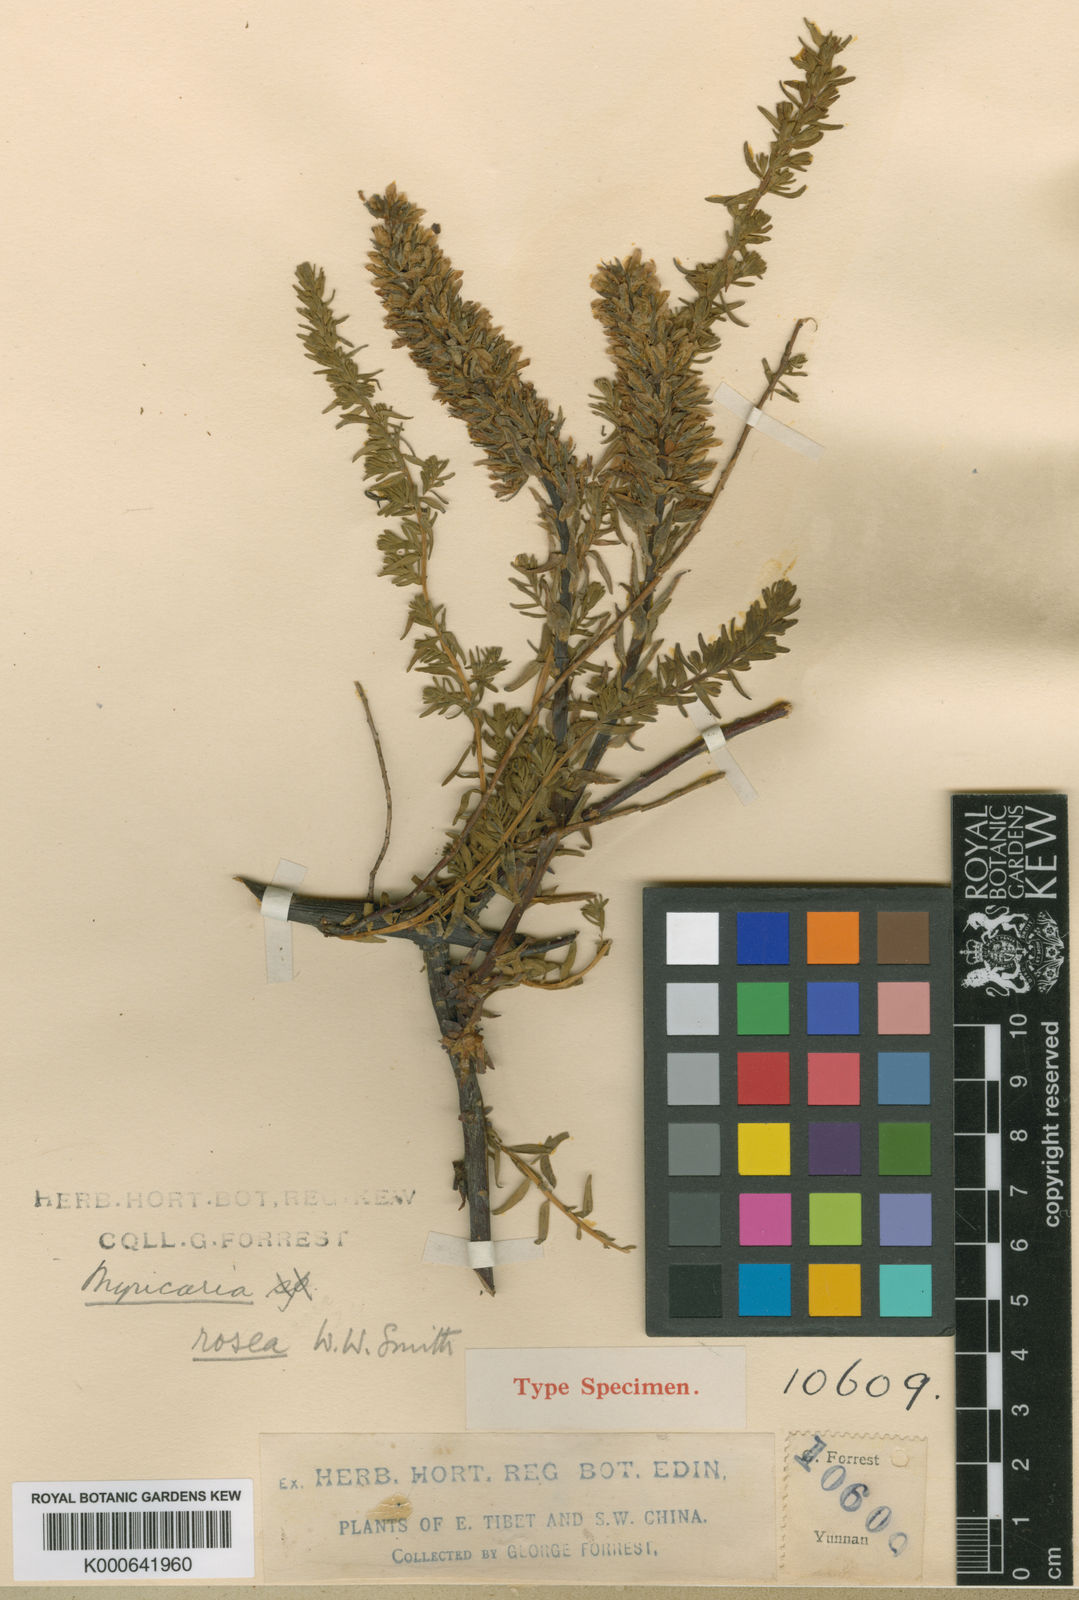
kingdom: Plantae
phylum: Tracheophyta
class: Magnoliopsida
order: Caryophyllales
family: Tamaricaceae
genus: Myricaria
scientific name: Myricaria rosea
